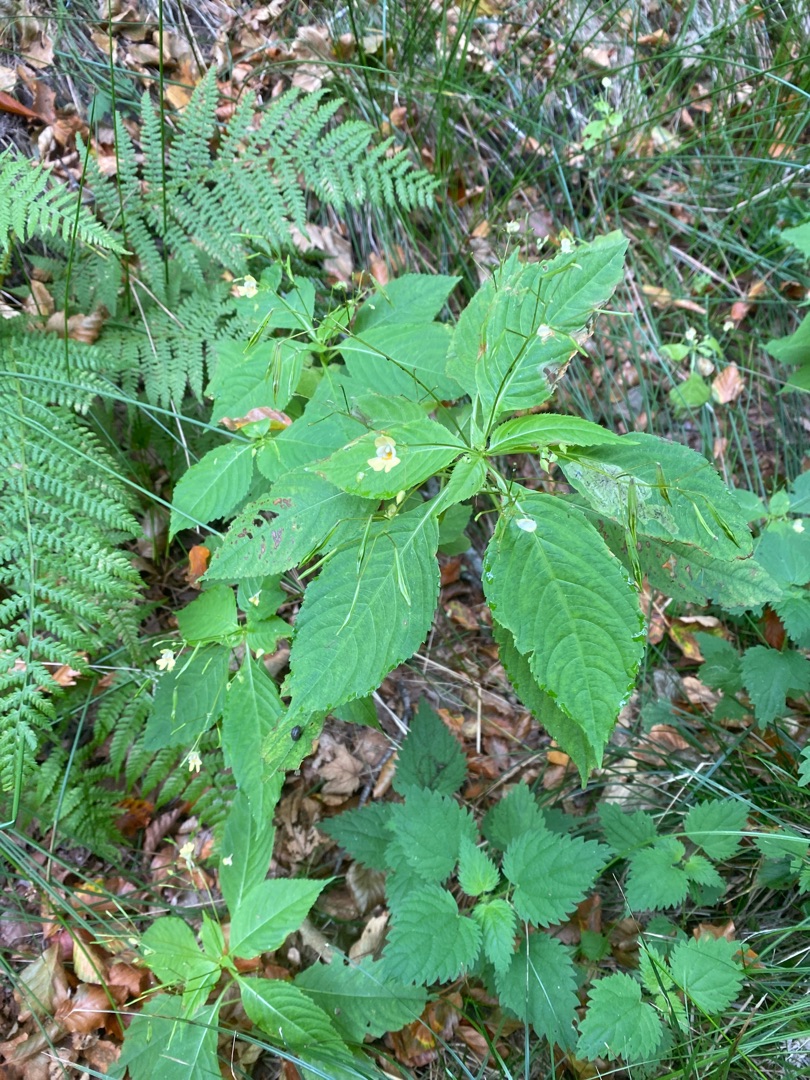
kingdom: Plantae
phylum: Tracheophyta
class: Magnoliopsida
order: Ericales
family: Balsaminaceae
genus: Impatiens
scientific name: Impatiens parviflora
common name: Småblomstret balsamin
